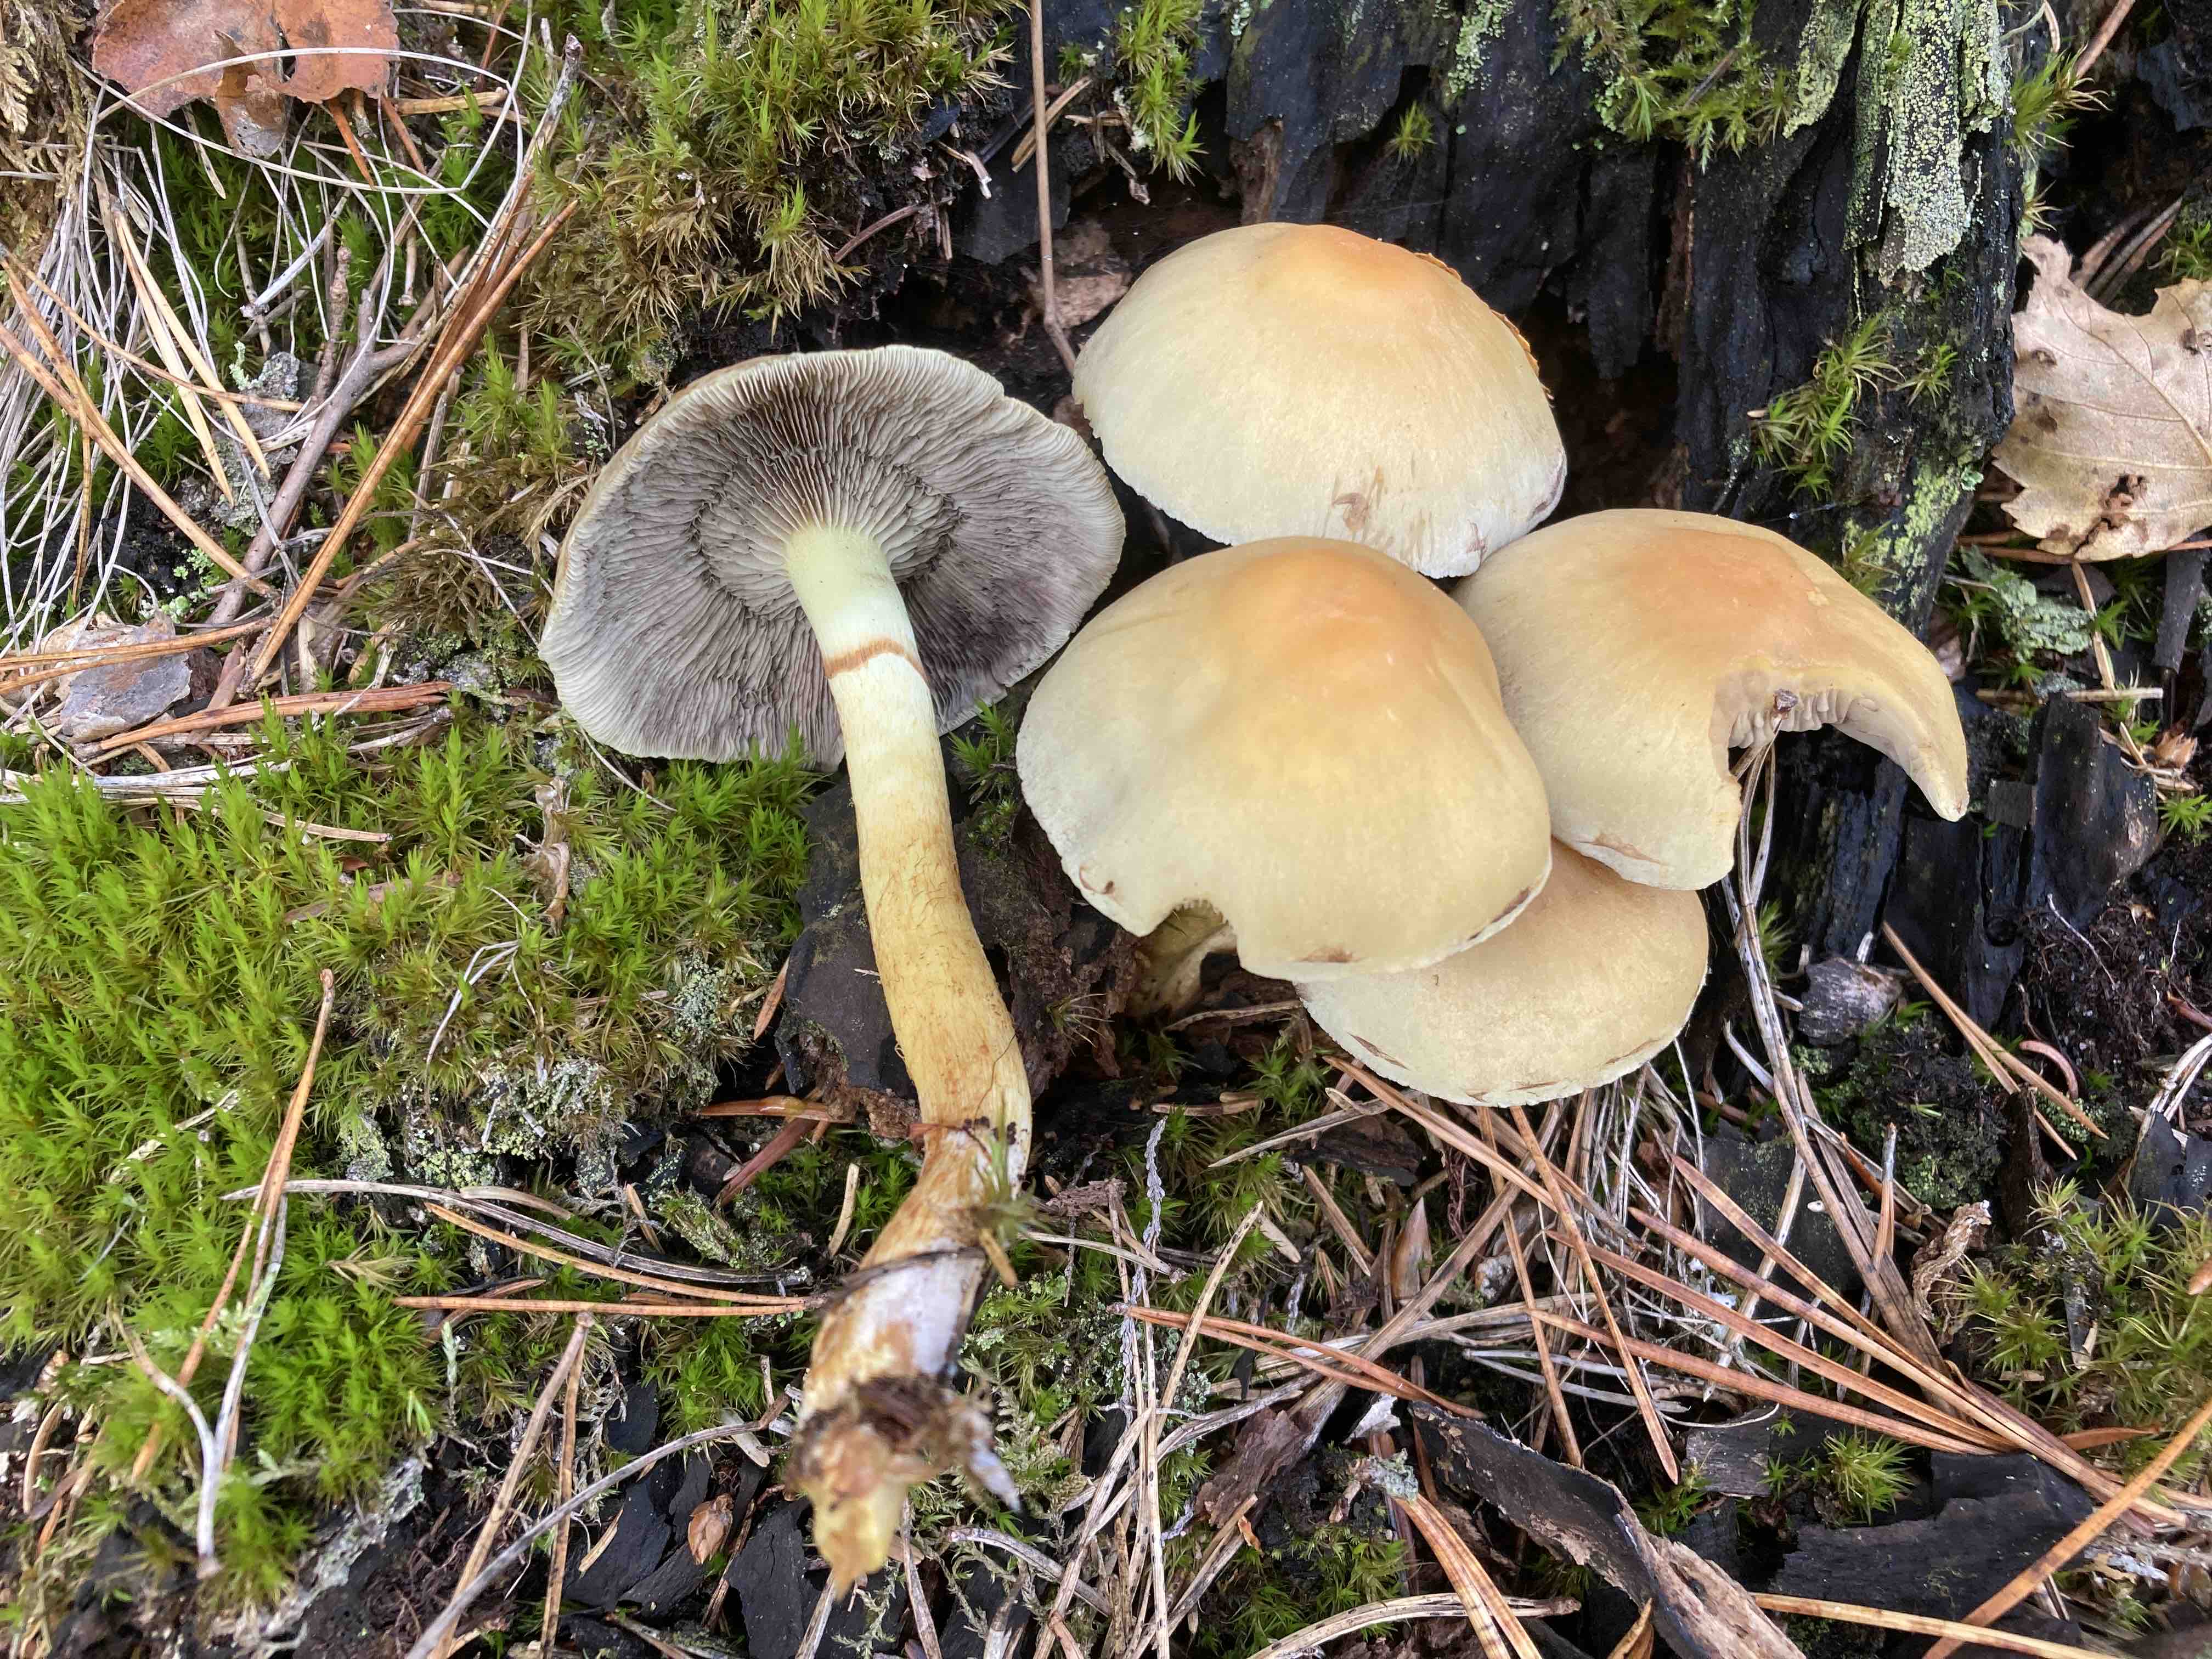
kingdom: Fungi
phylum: Basidiomycota
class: Agaricomycetes
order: Agaricales
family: Strophariaceae
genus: Hypholoma
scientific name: Hypholoma fasciculare
